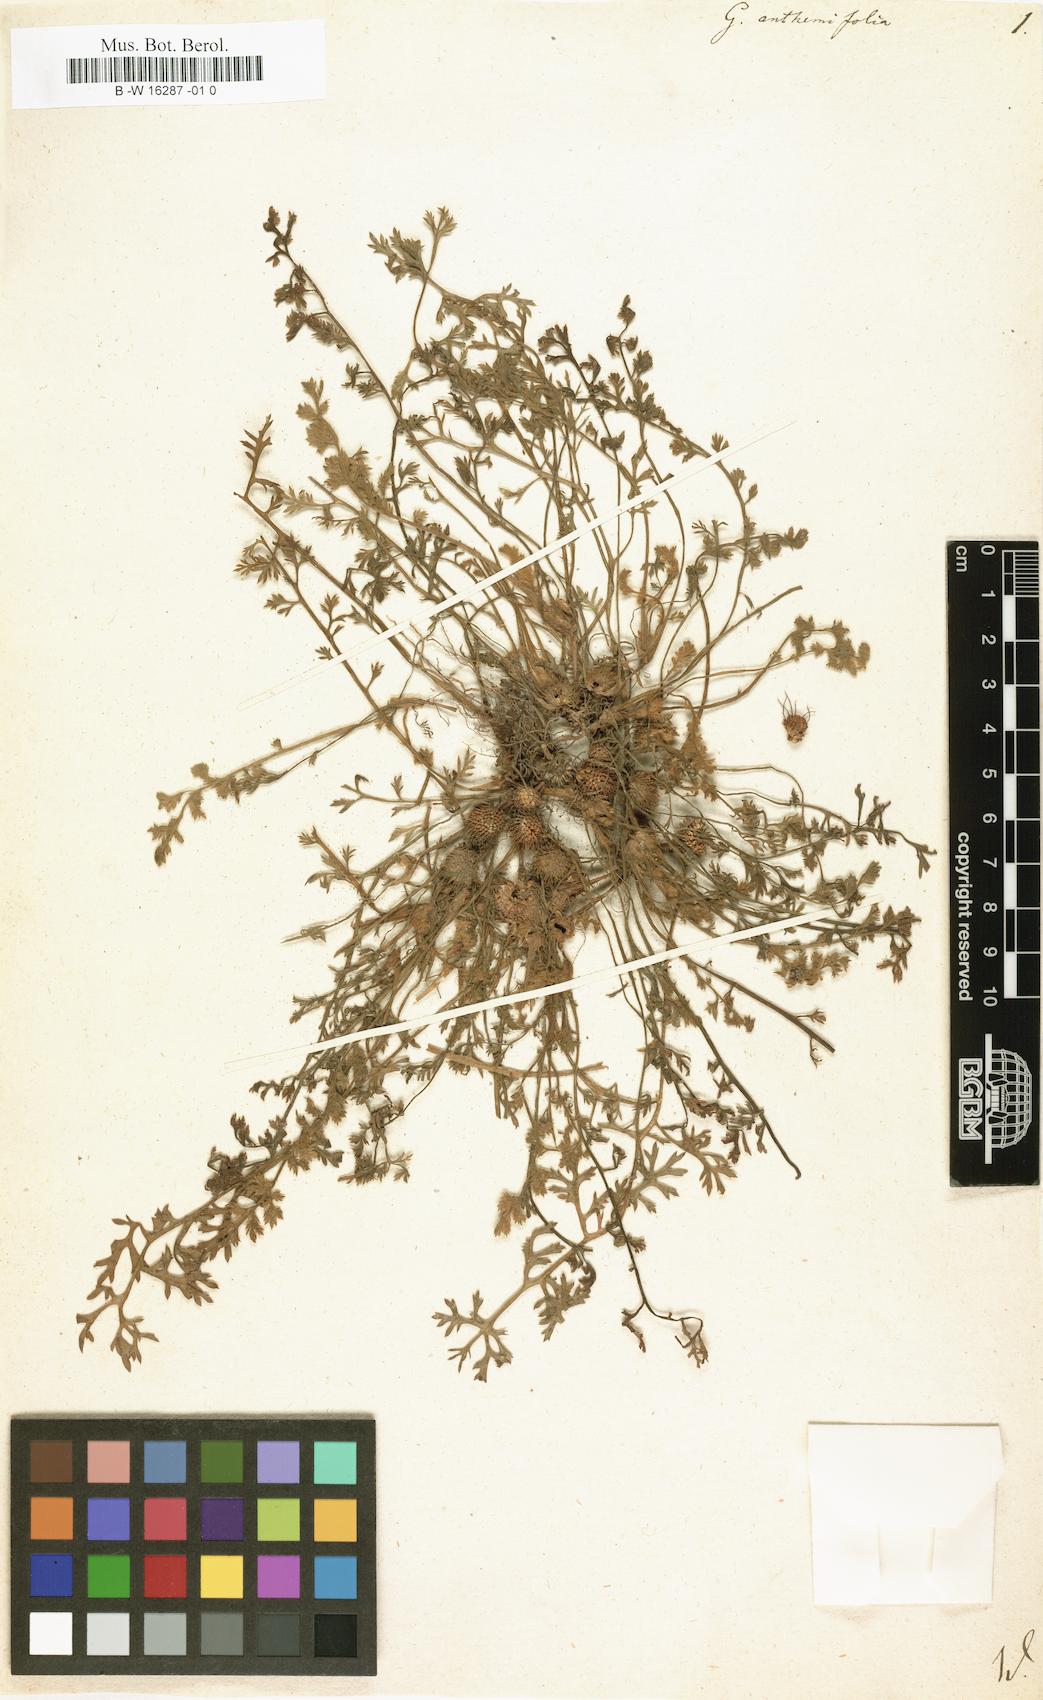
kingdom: Plantae
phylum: Tracheophyta
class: Magnoliopsida
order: Asterales
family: Asteraceae
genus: Soliva
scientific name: Soliva anthemifolia
